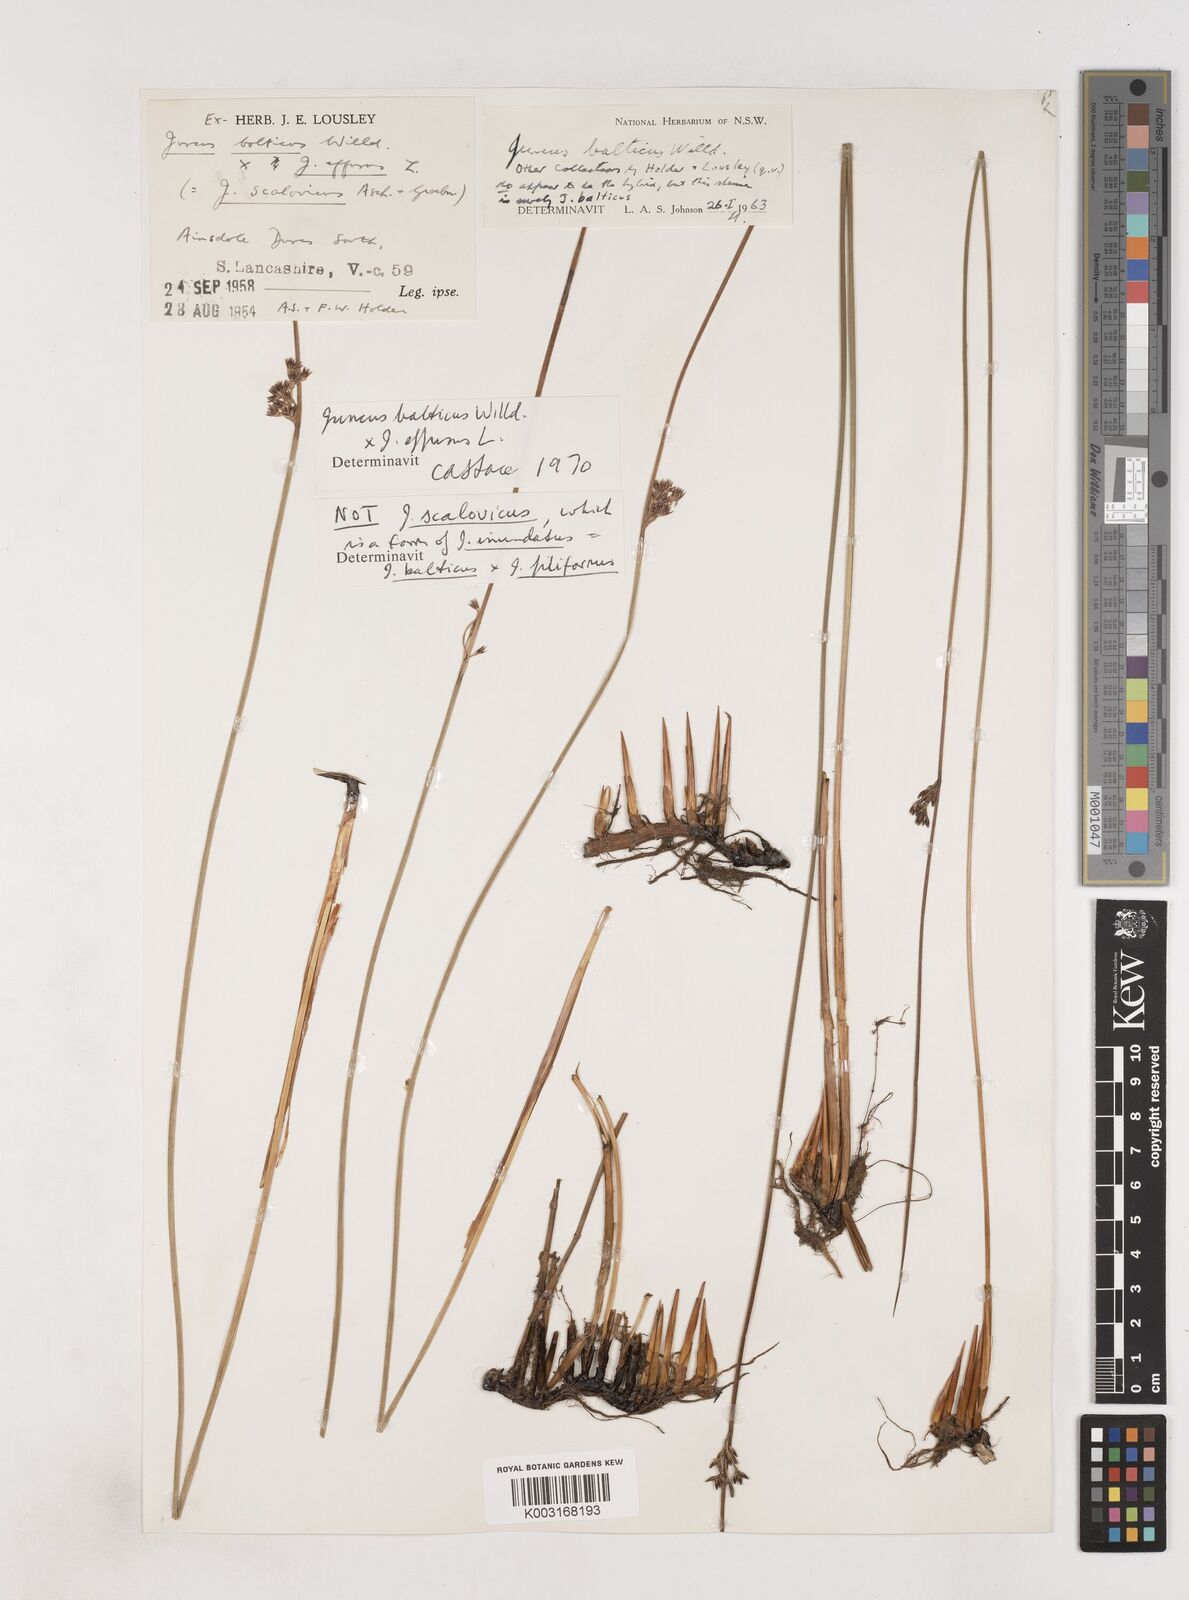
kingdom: Plantae
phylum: Tracheophyta
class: Liliopsida
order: Poales
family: Juncaceae
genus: Juncus
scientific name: Juncus balticus
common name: Baltic rush
